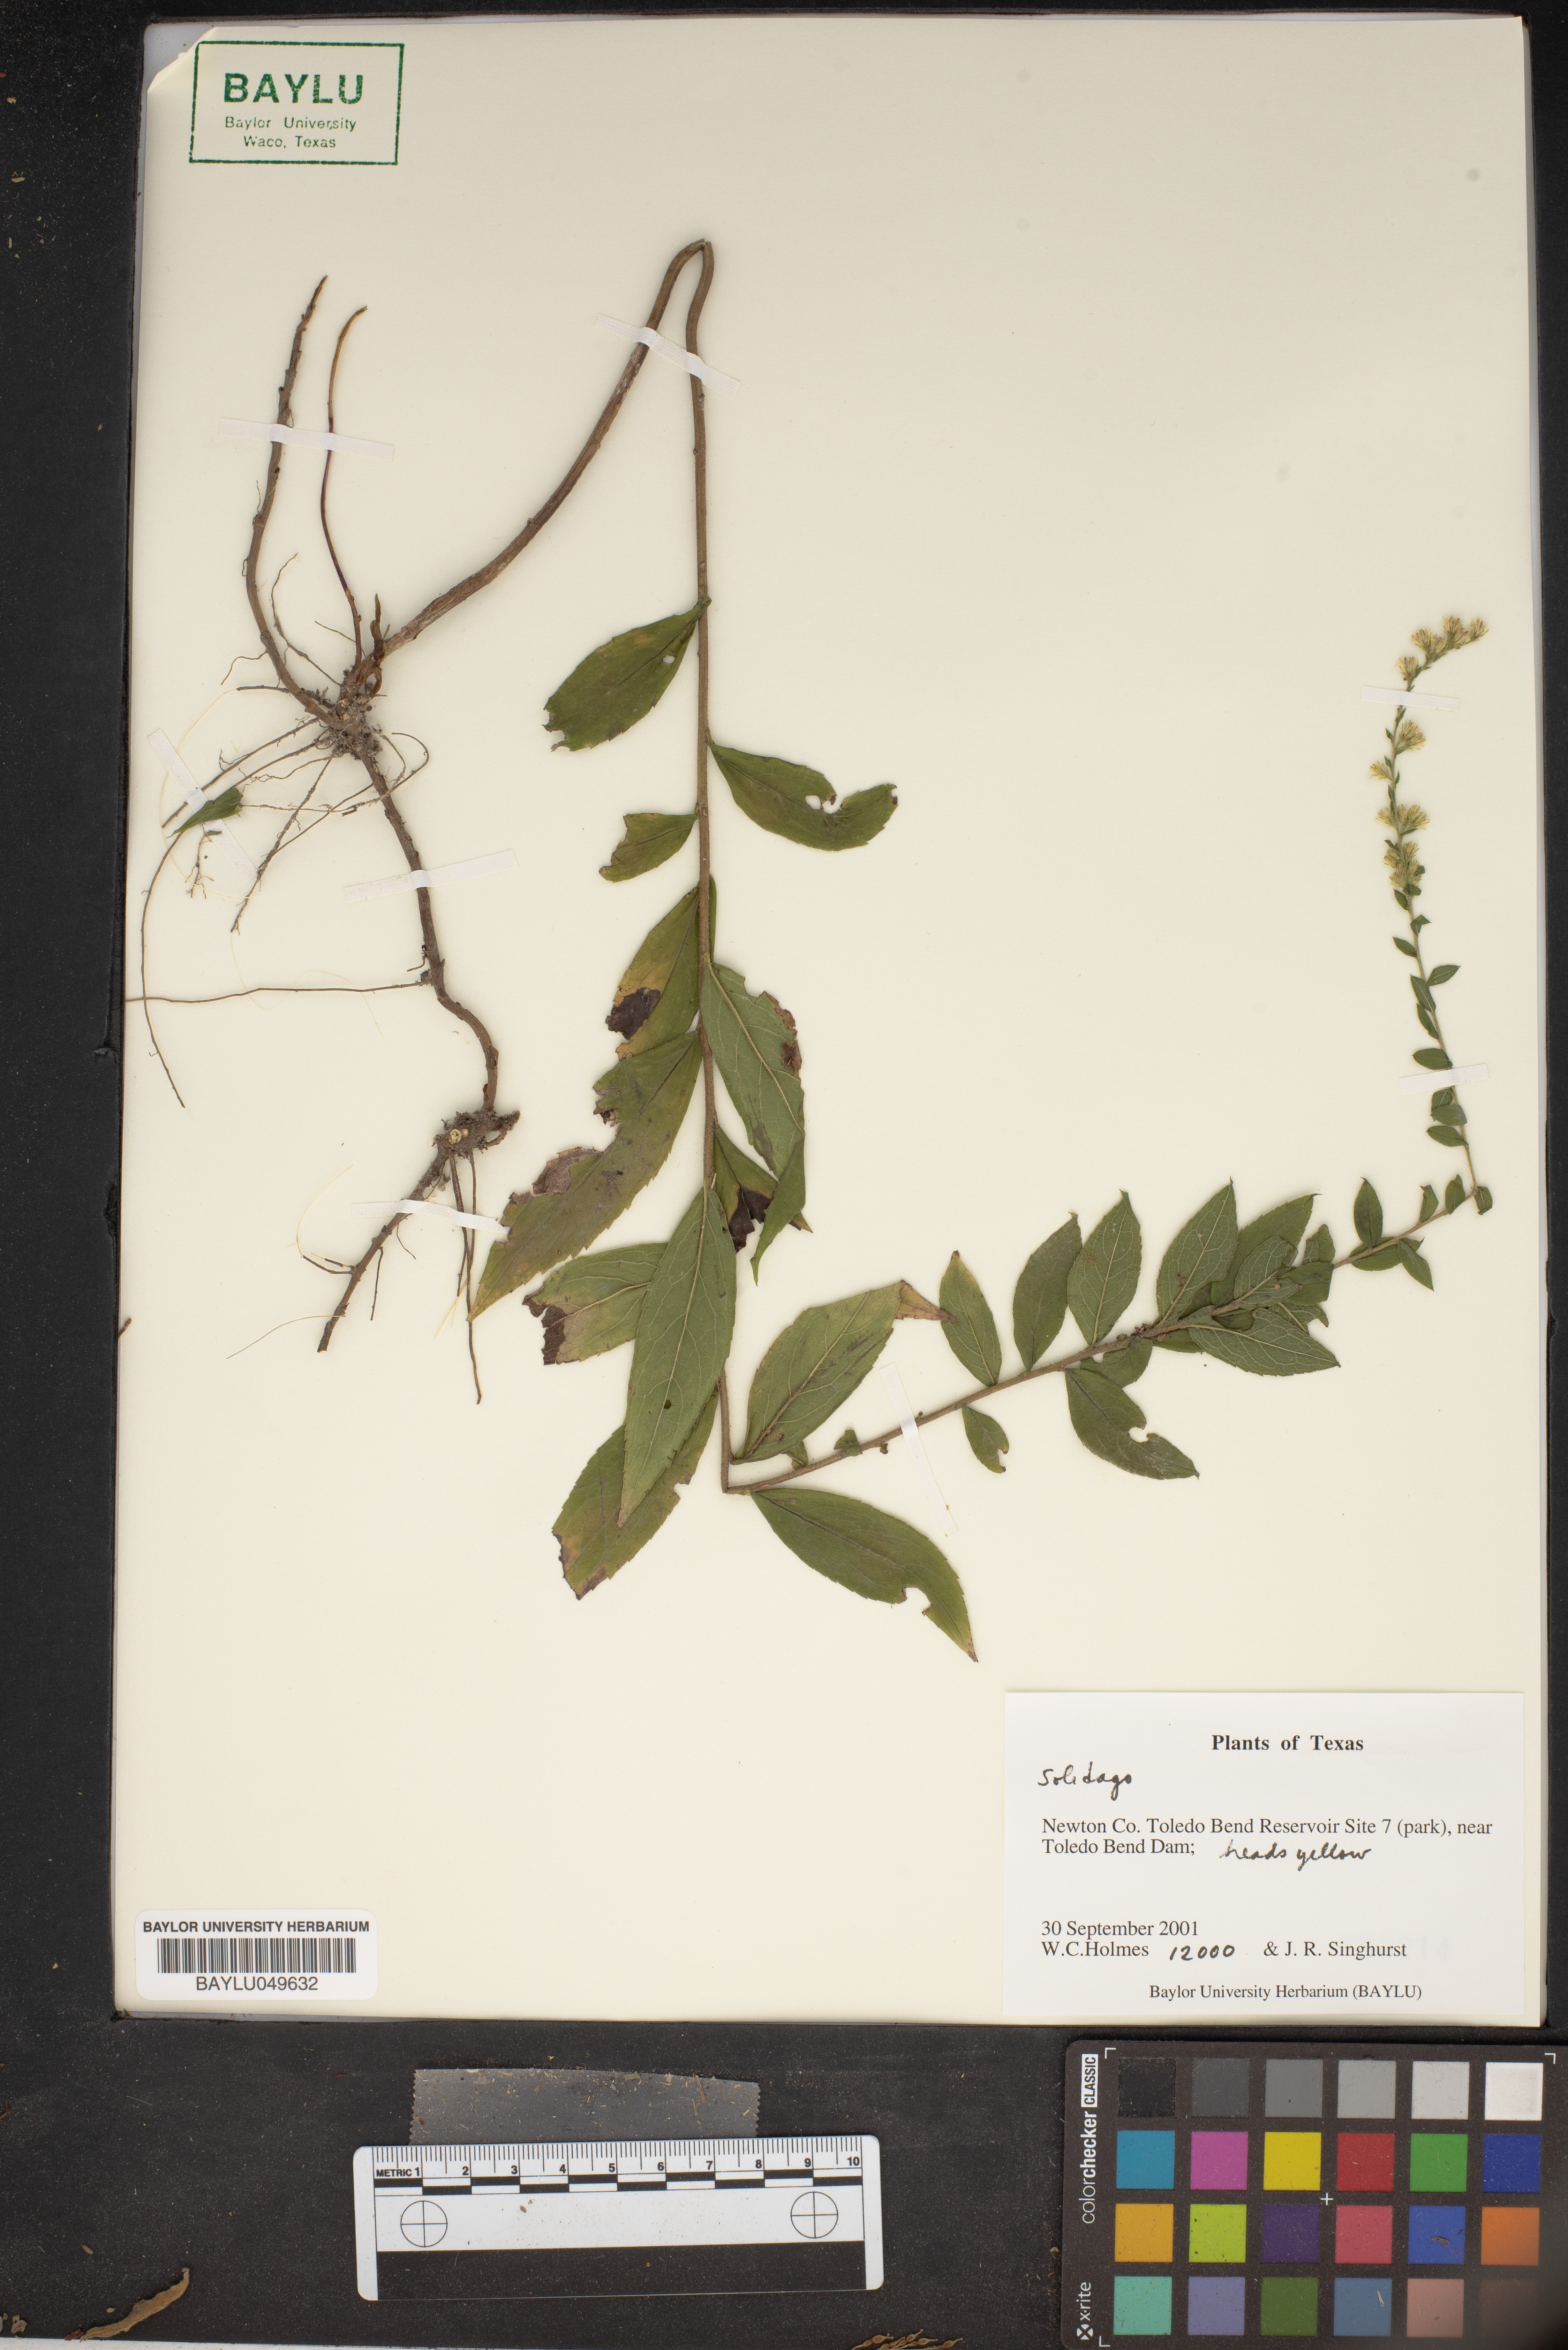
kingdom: Plantae
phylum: Tracheophyta
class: Magnoliopsida
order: Asterales
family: Asteraceae
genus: Solidago
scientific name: Solidago
